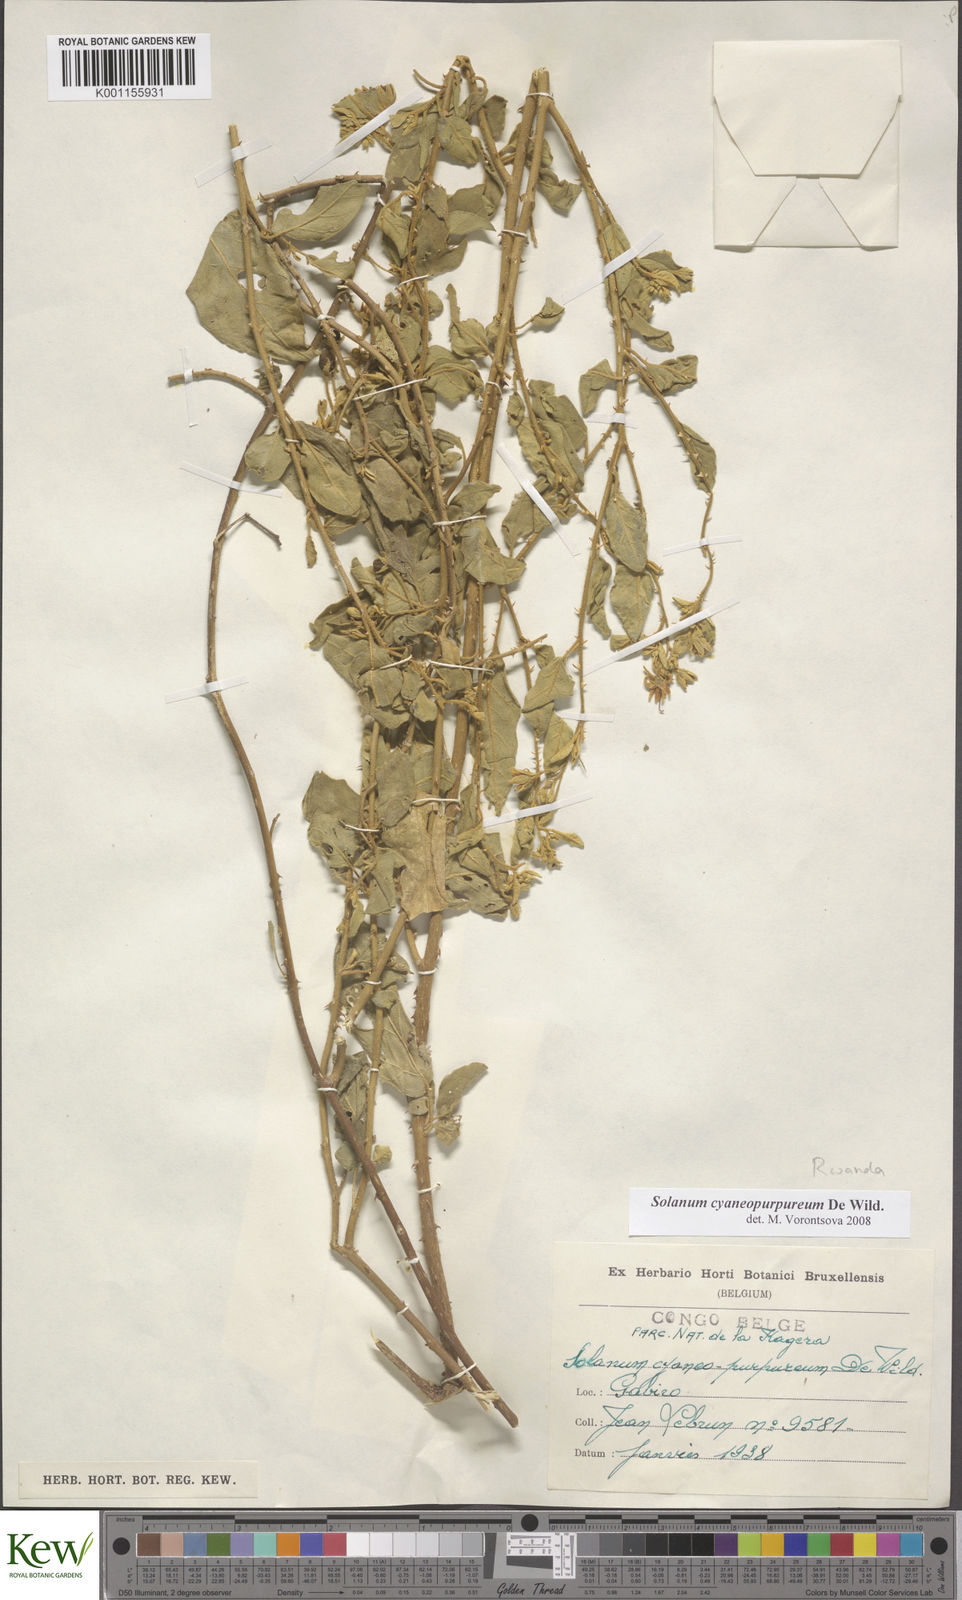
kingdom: Plantae
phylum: Tracheophyta
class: Magnoliopsida
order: Solanales
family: Solanaceae
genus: Solanum
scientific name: Solanum cyaneopurpureum
